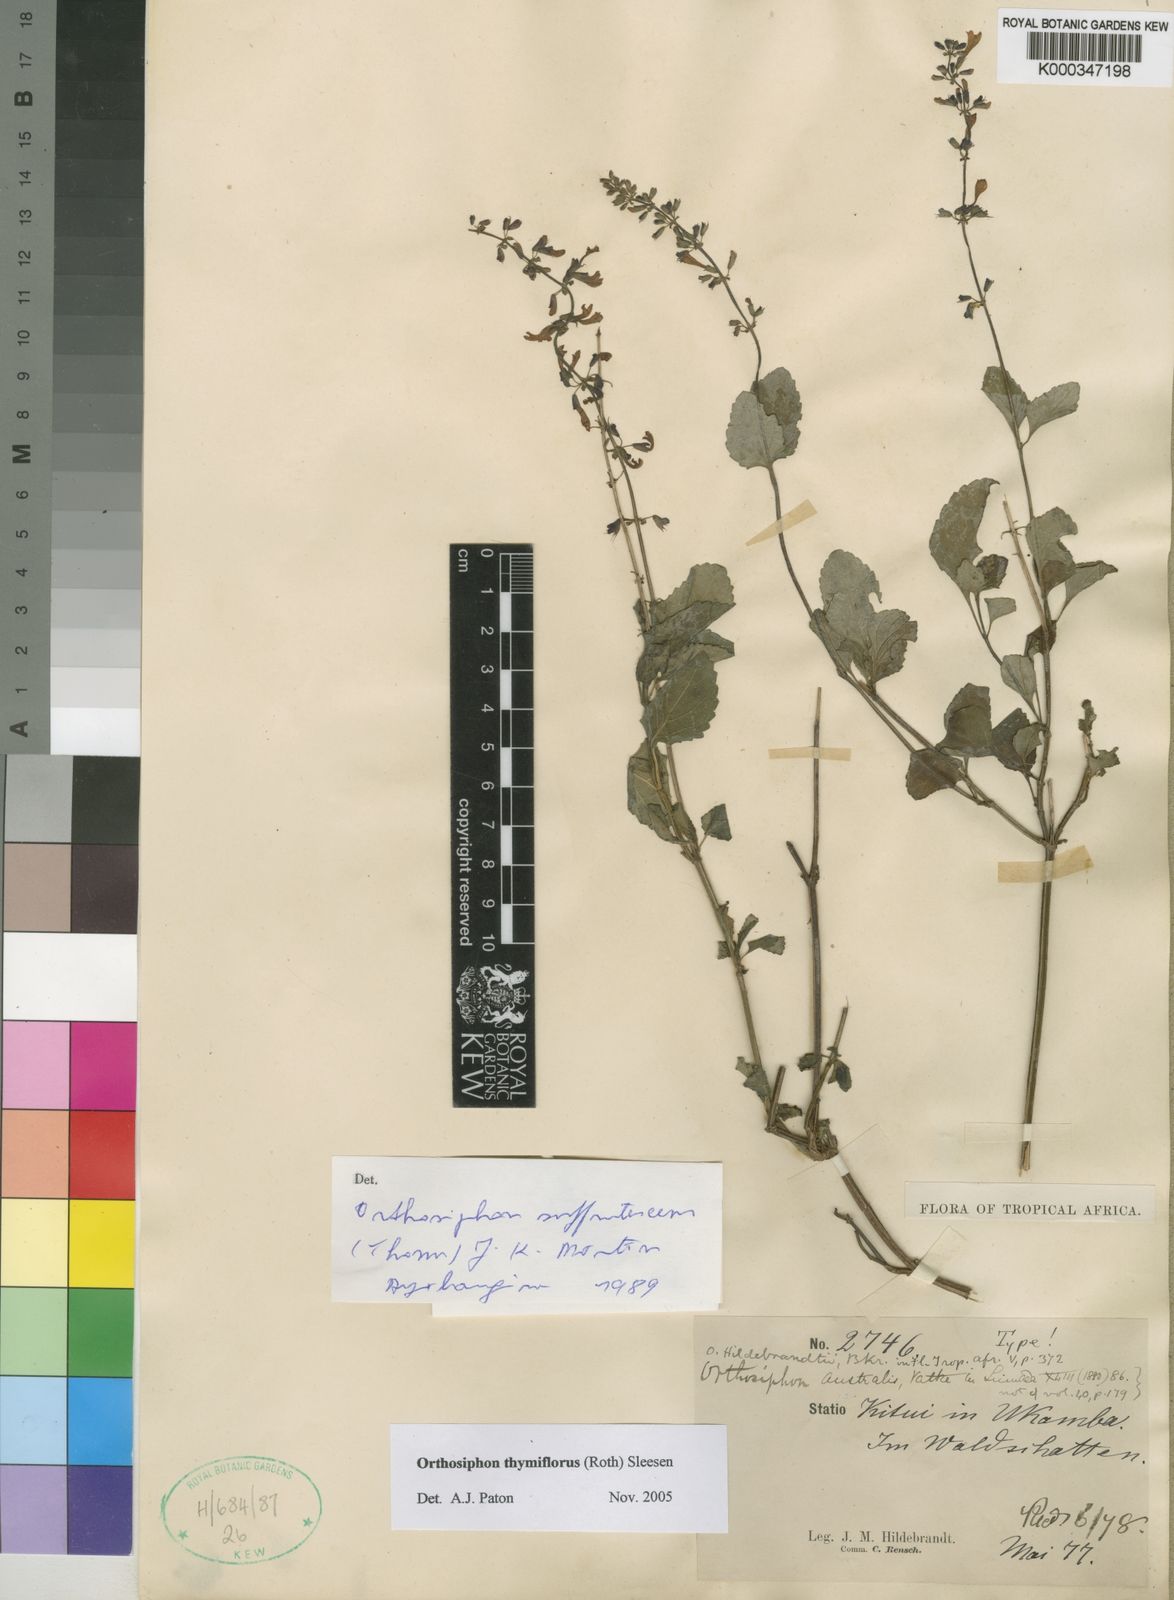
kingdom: Plantae
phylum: Tracheophyta
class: Magnoliopsida
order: Lamiales
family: Lamiaceae
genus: Orthosiphon
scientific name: Orthosiphon thymiflorus
